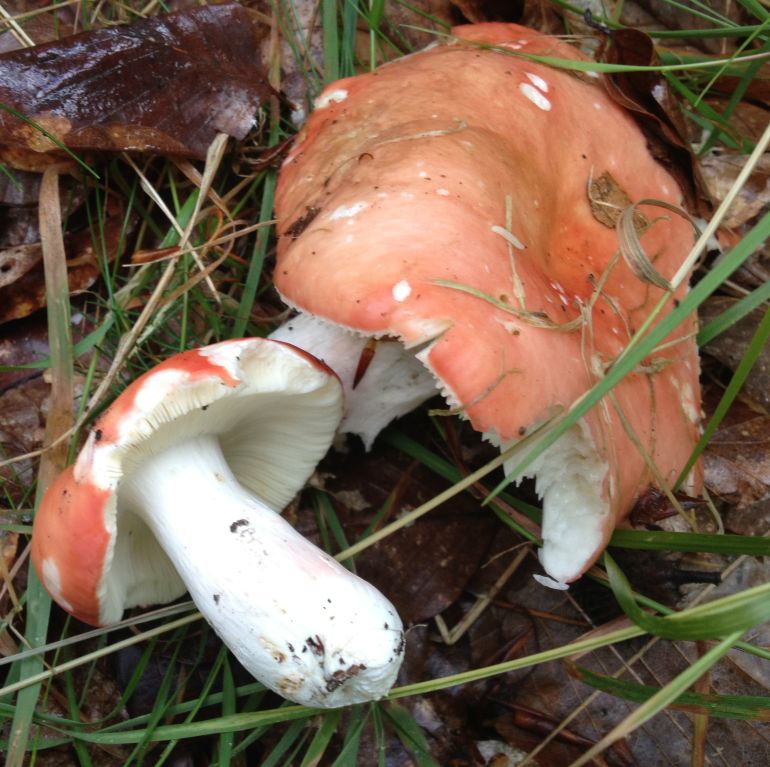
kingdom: Fungi
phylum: Basidiomycota
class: Agaricomycetes
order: Russulales
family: Russulaceae
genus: Russula
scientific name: Russula rosea
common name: fastkødet skørhat
